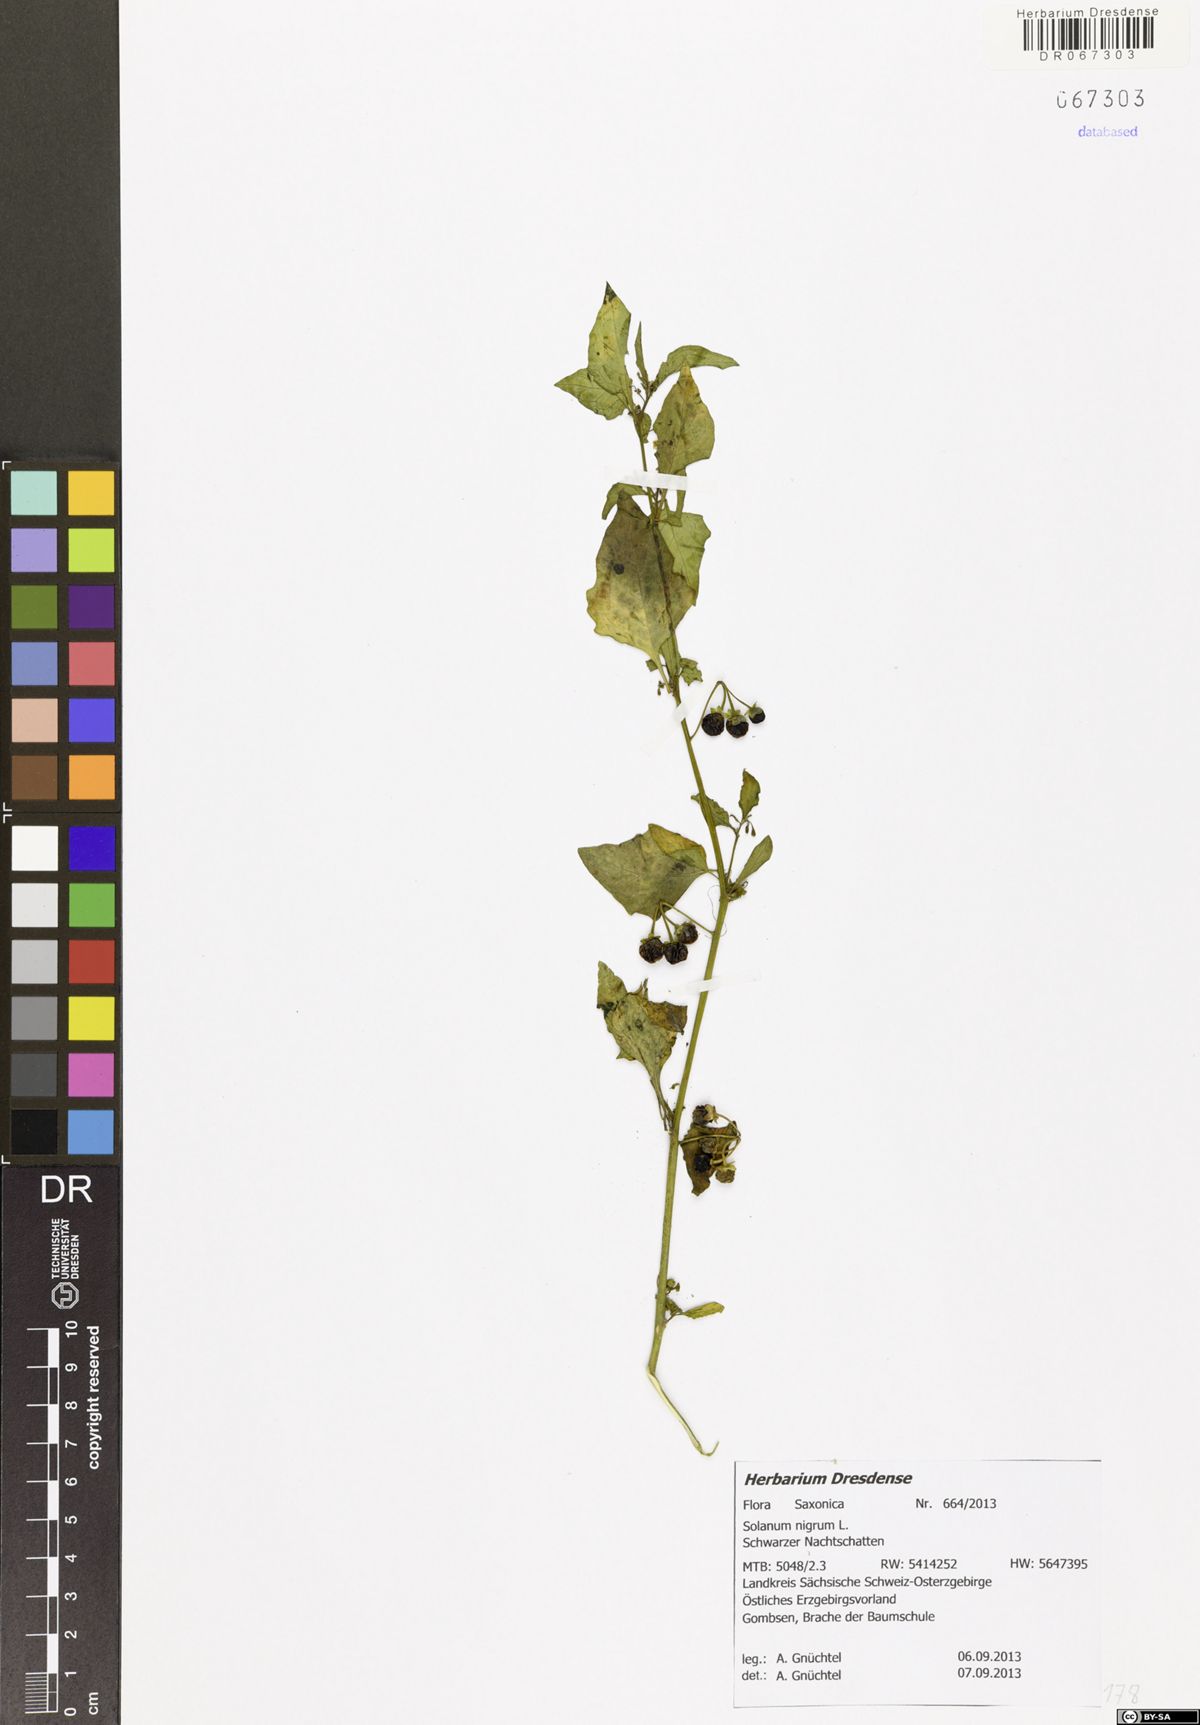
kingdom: Plantae
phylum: Tracheophyta
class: Magnoliopsida
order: Solanales
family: Solanaceae
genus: Solanum
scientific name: Solanum nigrum
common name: Black nightshade
